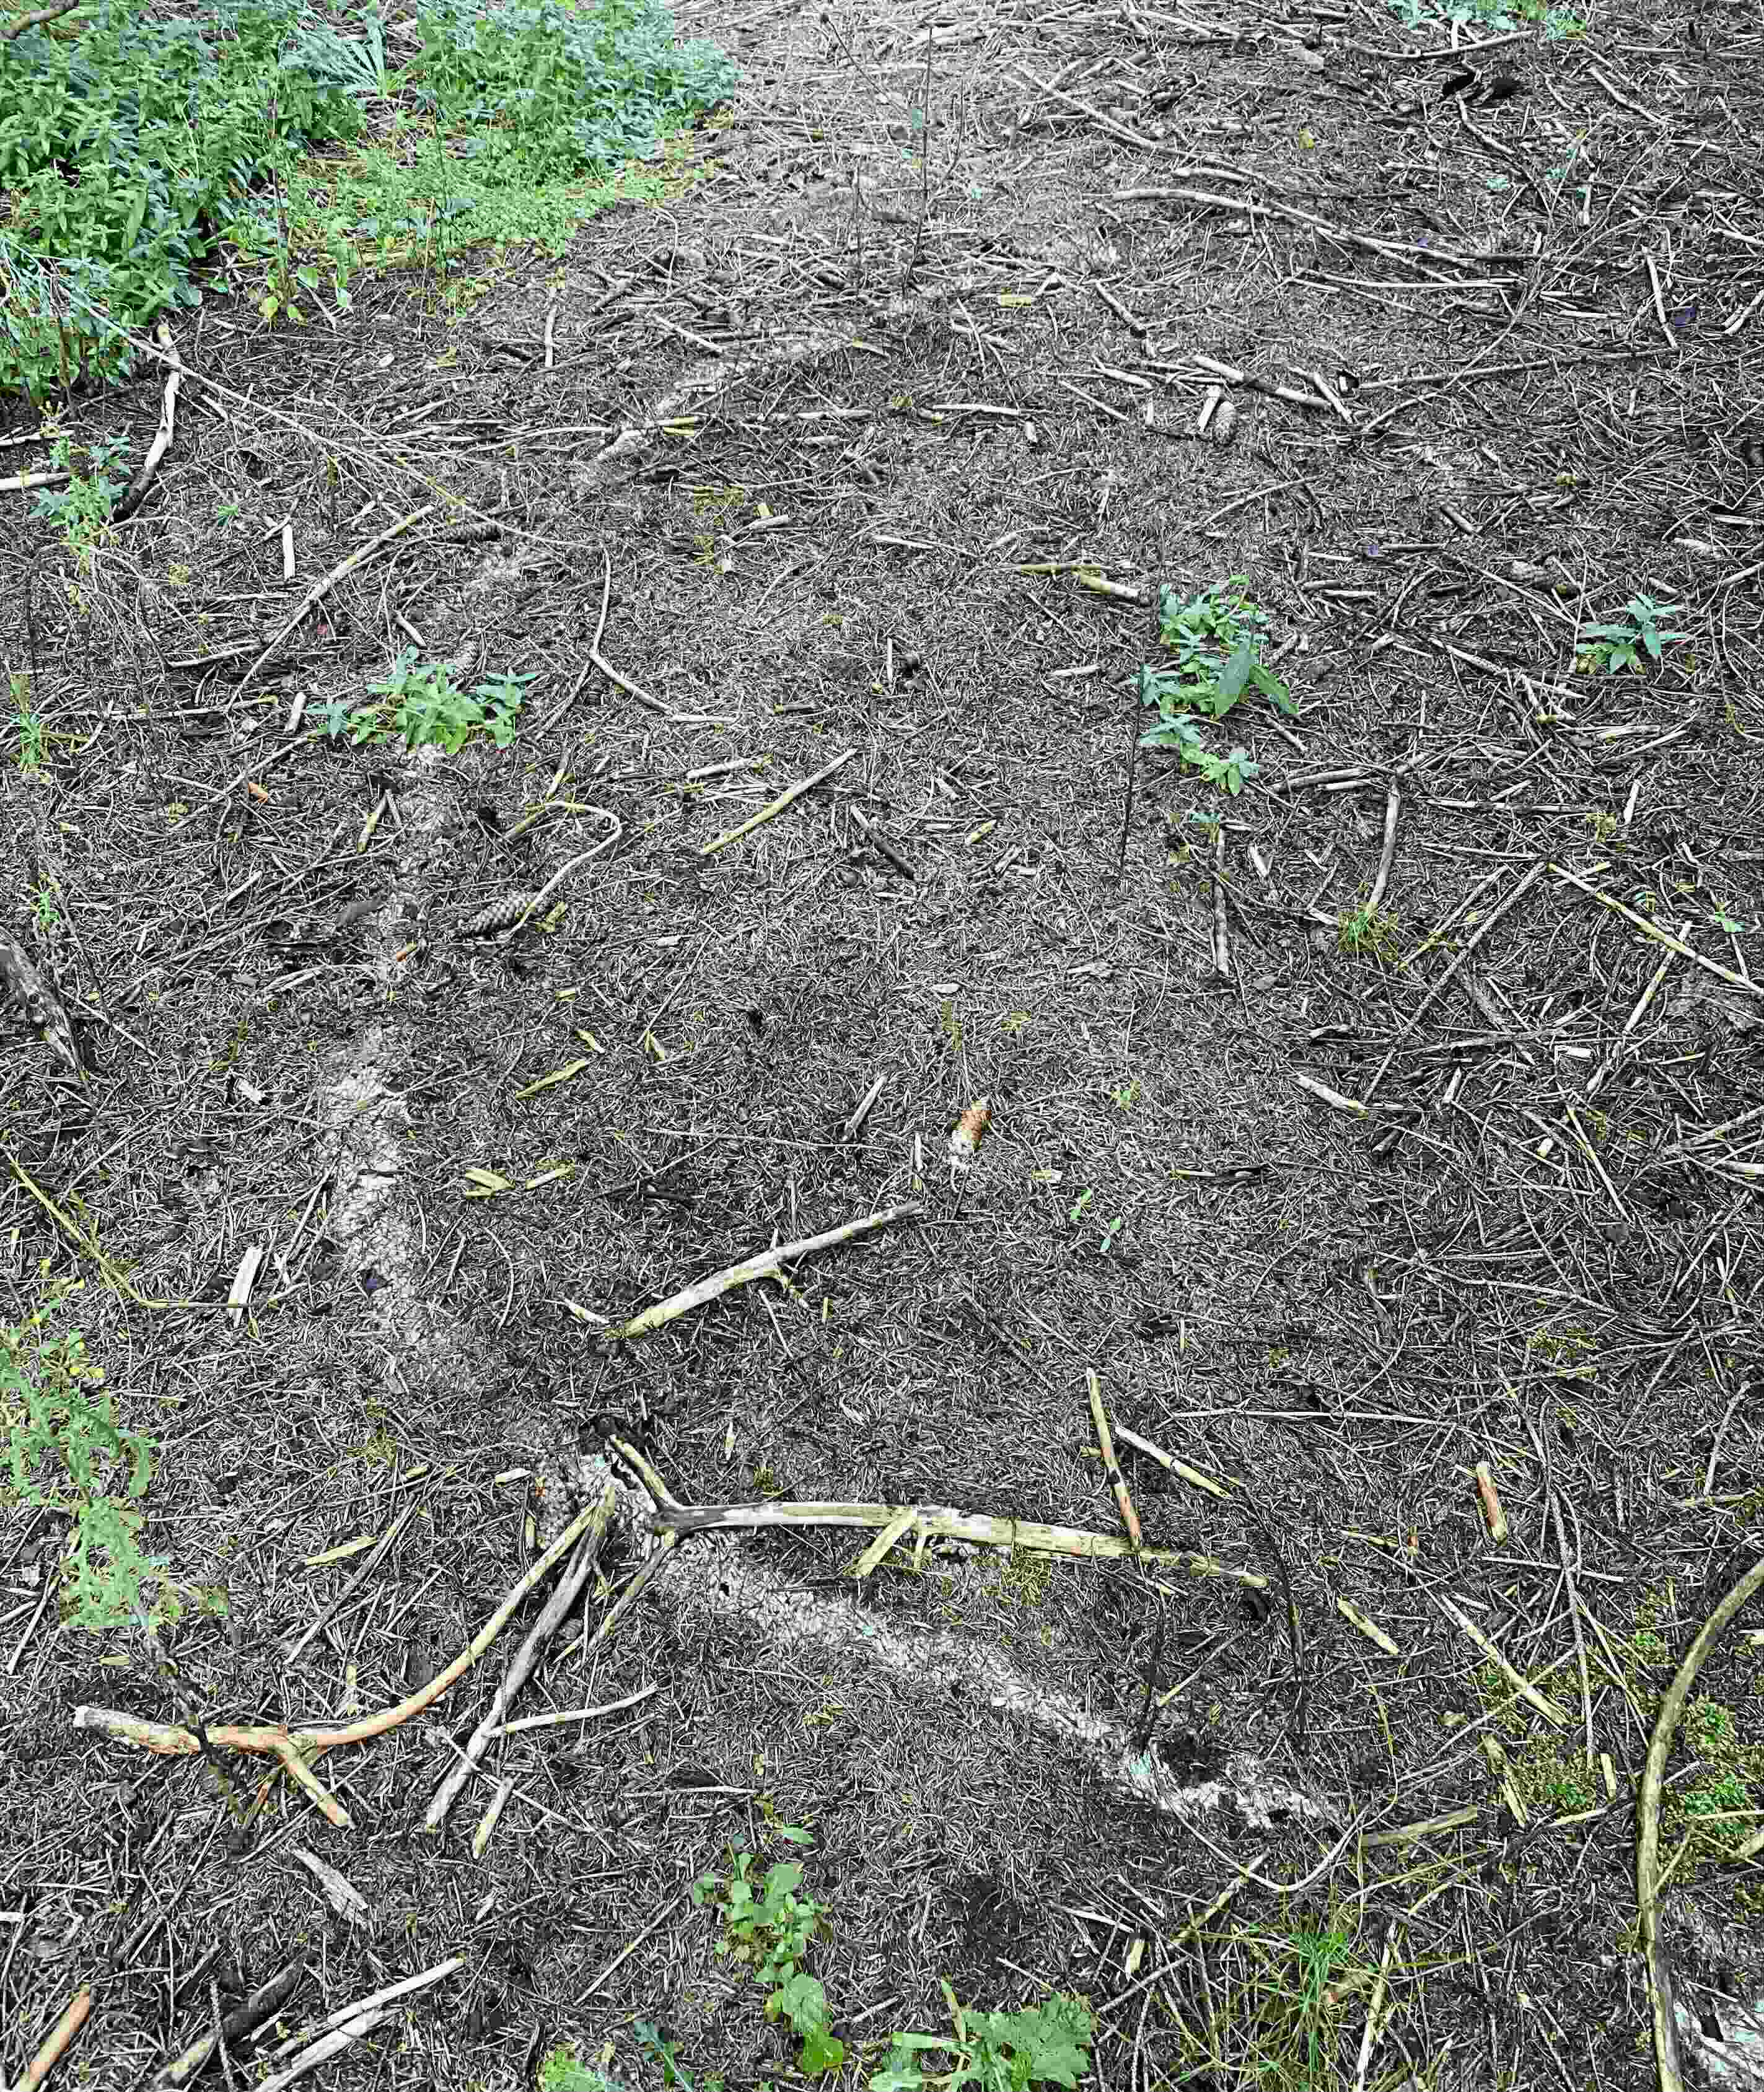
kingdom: Fungi
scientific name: Fungi
